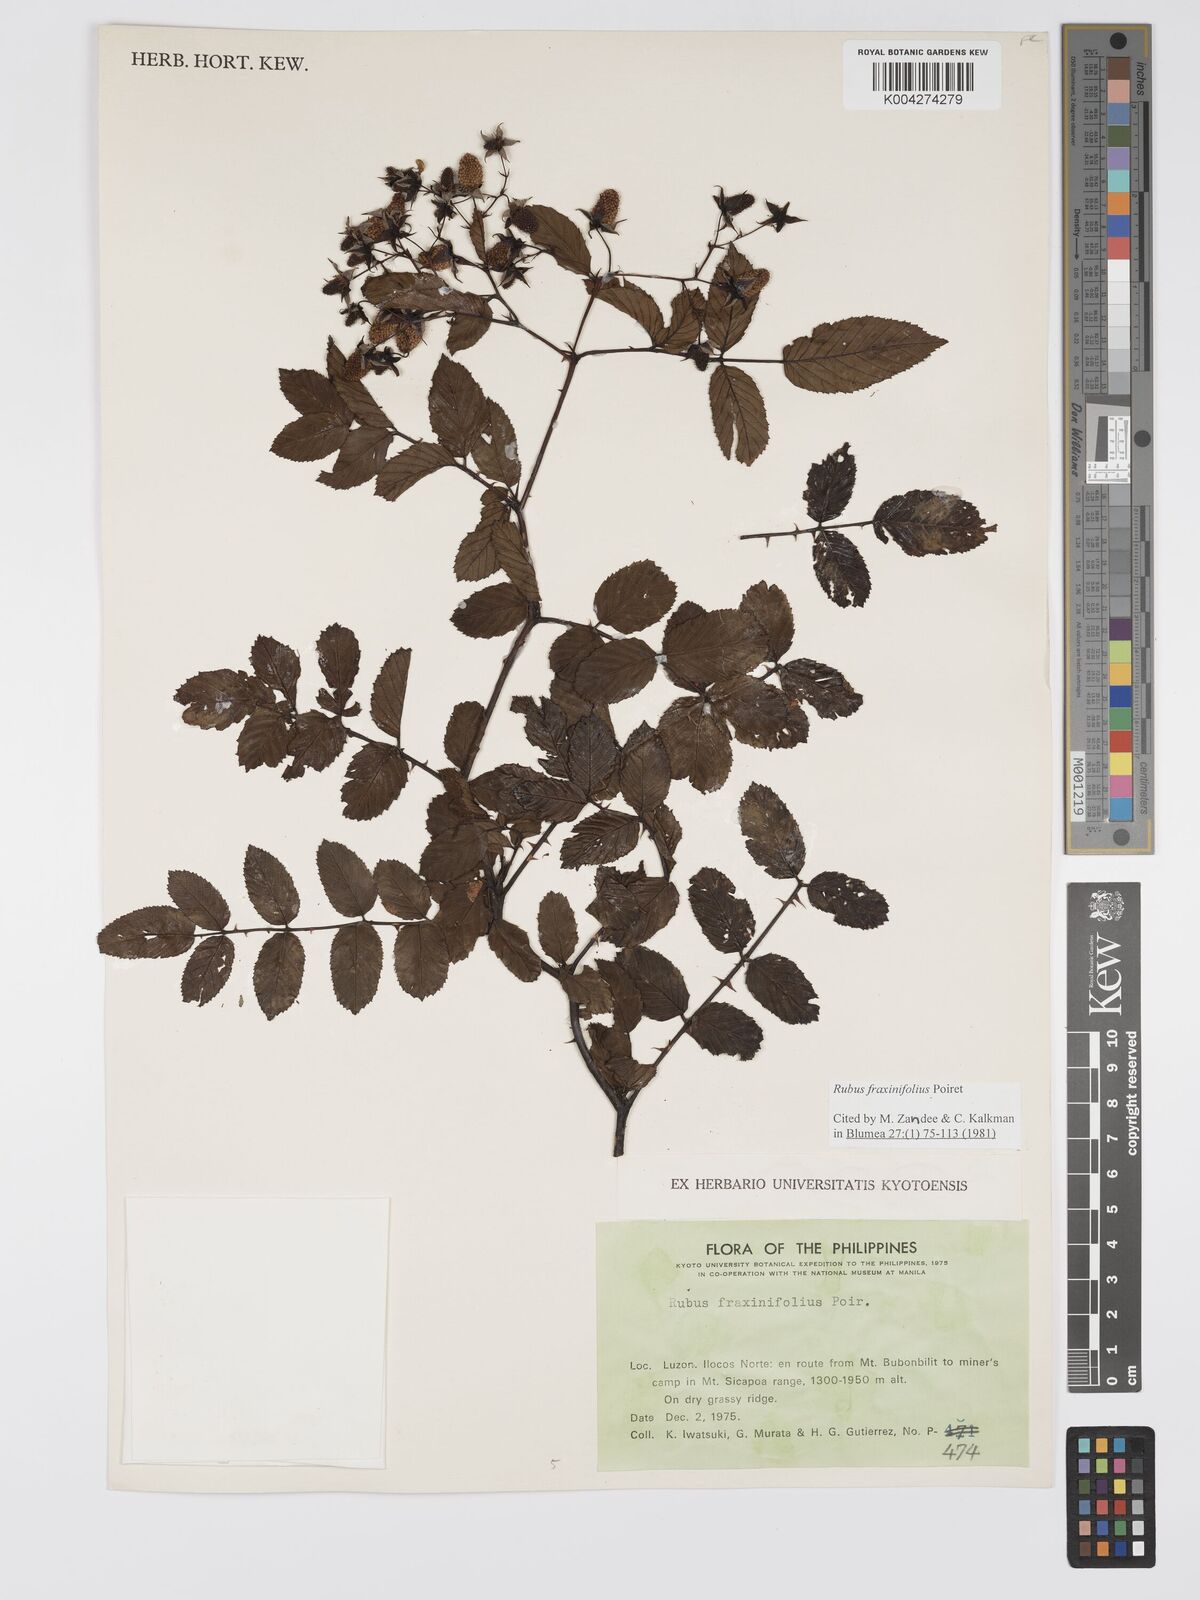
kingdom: Plantae
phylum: Tracheophyta
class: Magnoliopsida
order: Rosales
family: Rosaceae
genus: Rubus
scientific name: Rubus fraxinifolius
